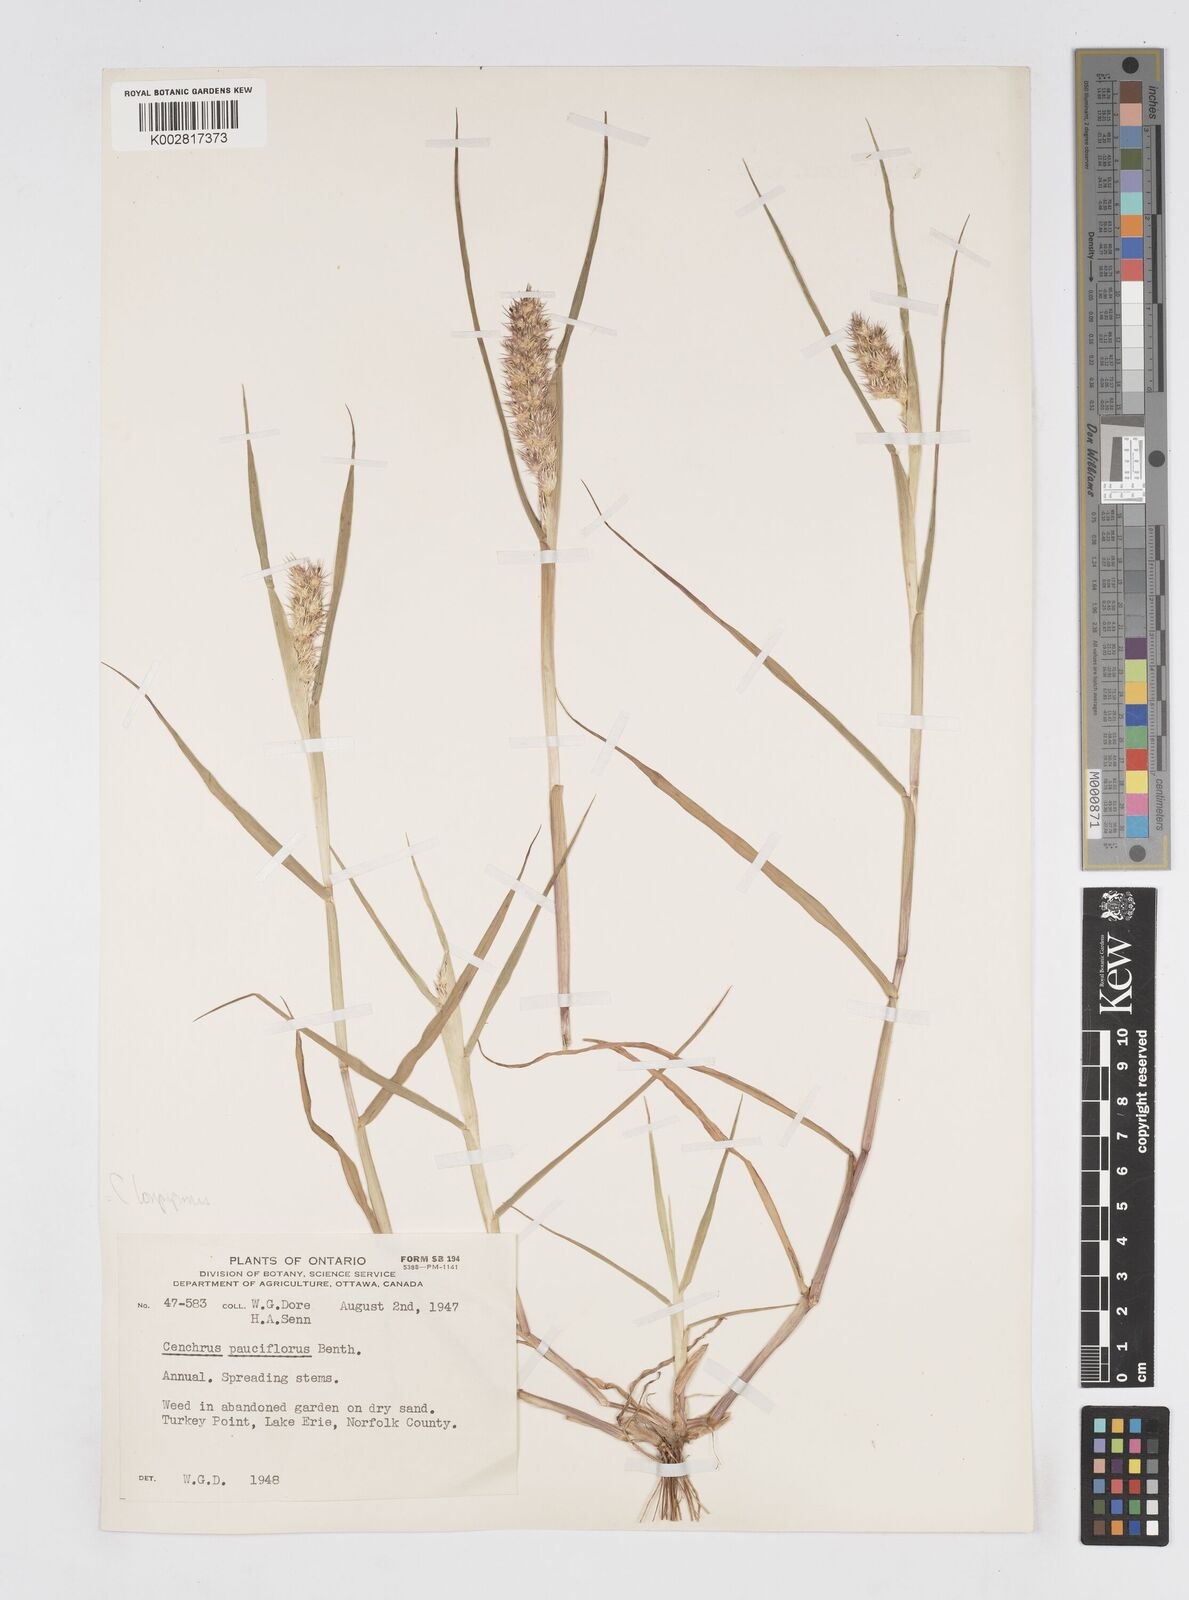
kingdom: Plantae
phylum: Tracheophyta
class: Liliopsida
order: Poales
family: Poaceae
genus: Cenchrus
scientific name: Cenchrus longispinus
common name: Mat sandbur
